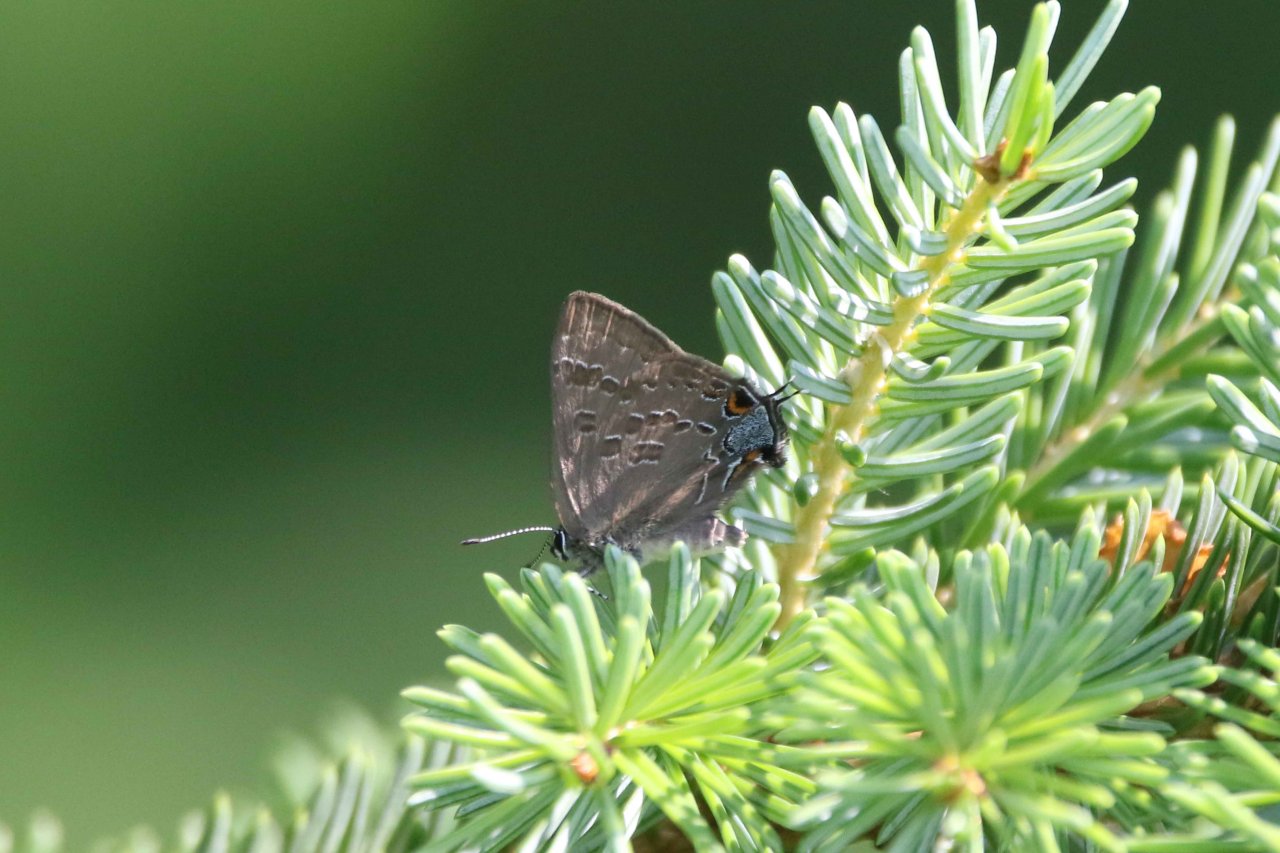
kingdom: Animalia
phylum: Arthropoda
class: Insecta
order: Lepidoptera
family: Lycaenidae
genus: Strymon
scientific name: Strymon caryaevorus
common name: Hickory Hairstreak
